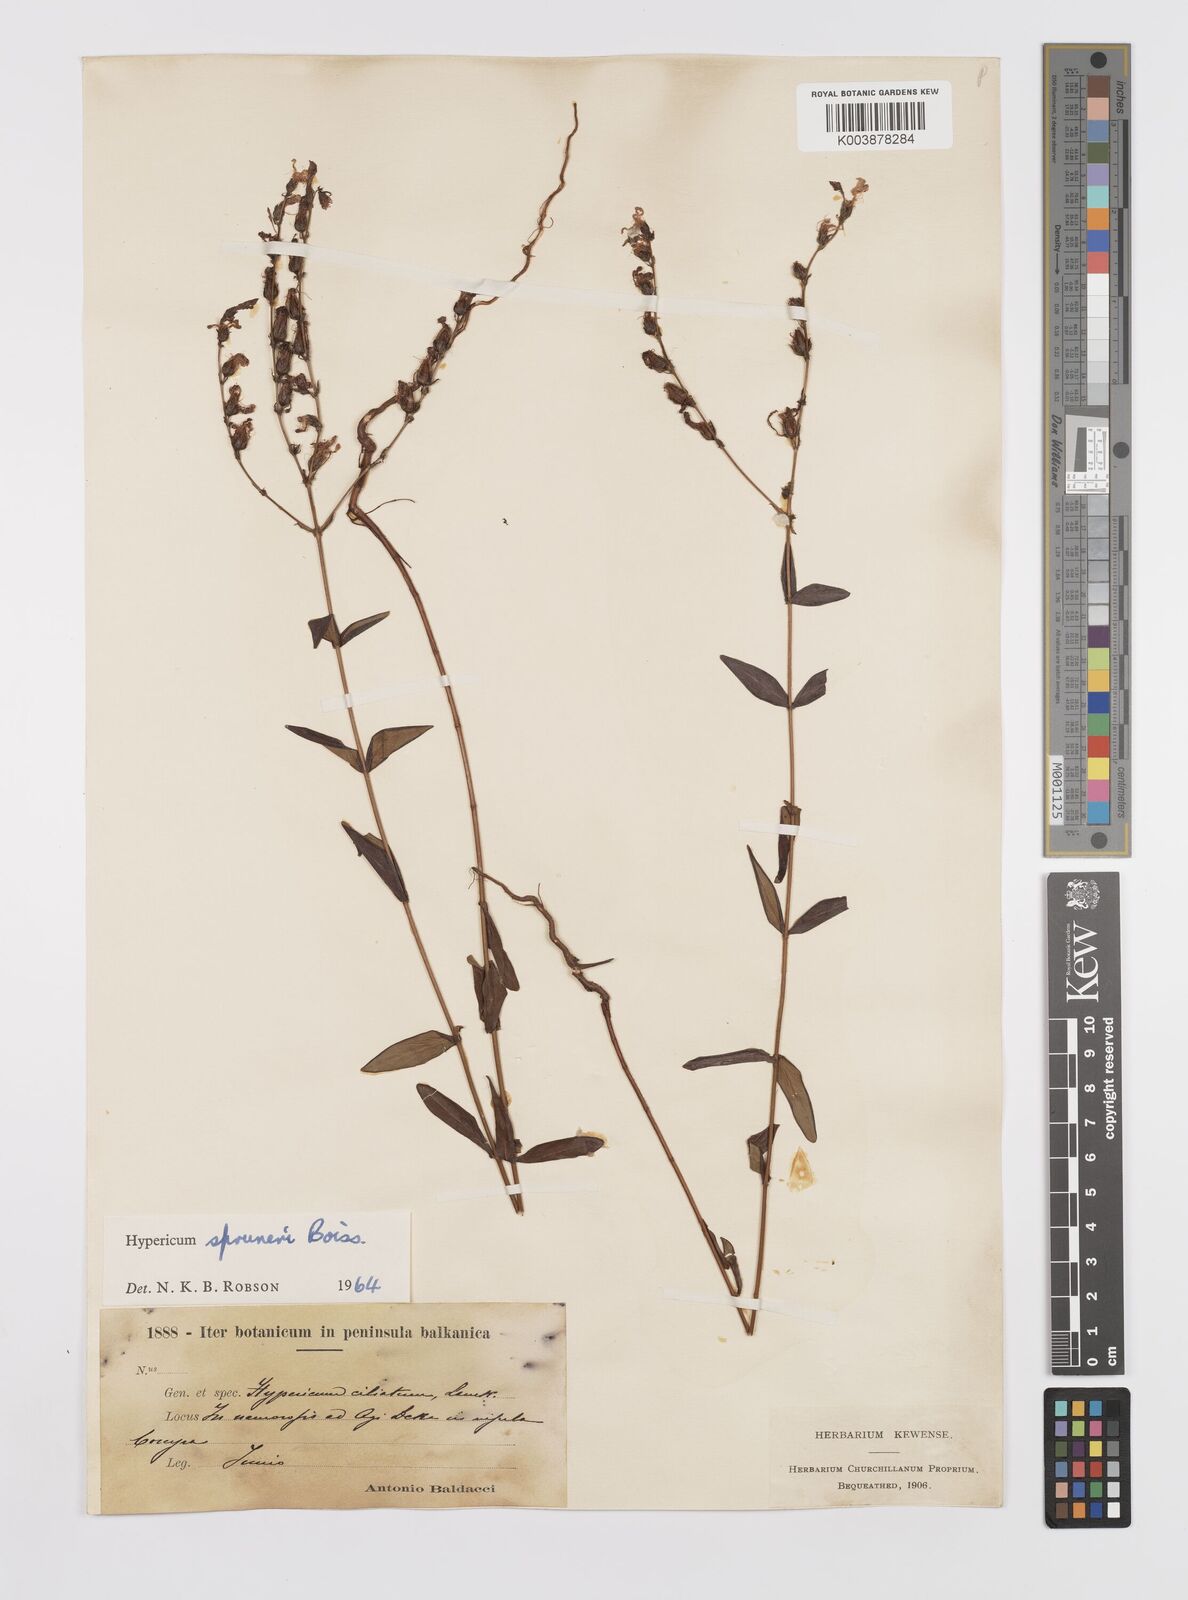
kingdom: Plantae
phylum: Tracheophyta
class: Magnoliopsida
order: Malpighiales
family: Hypericaceae
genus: Hypericum
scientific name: Hypericum spruneri
